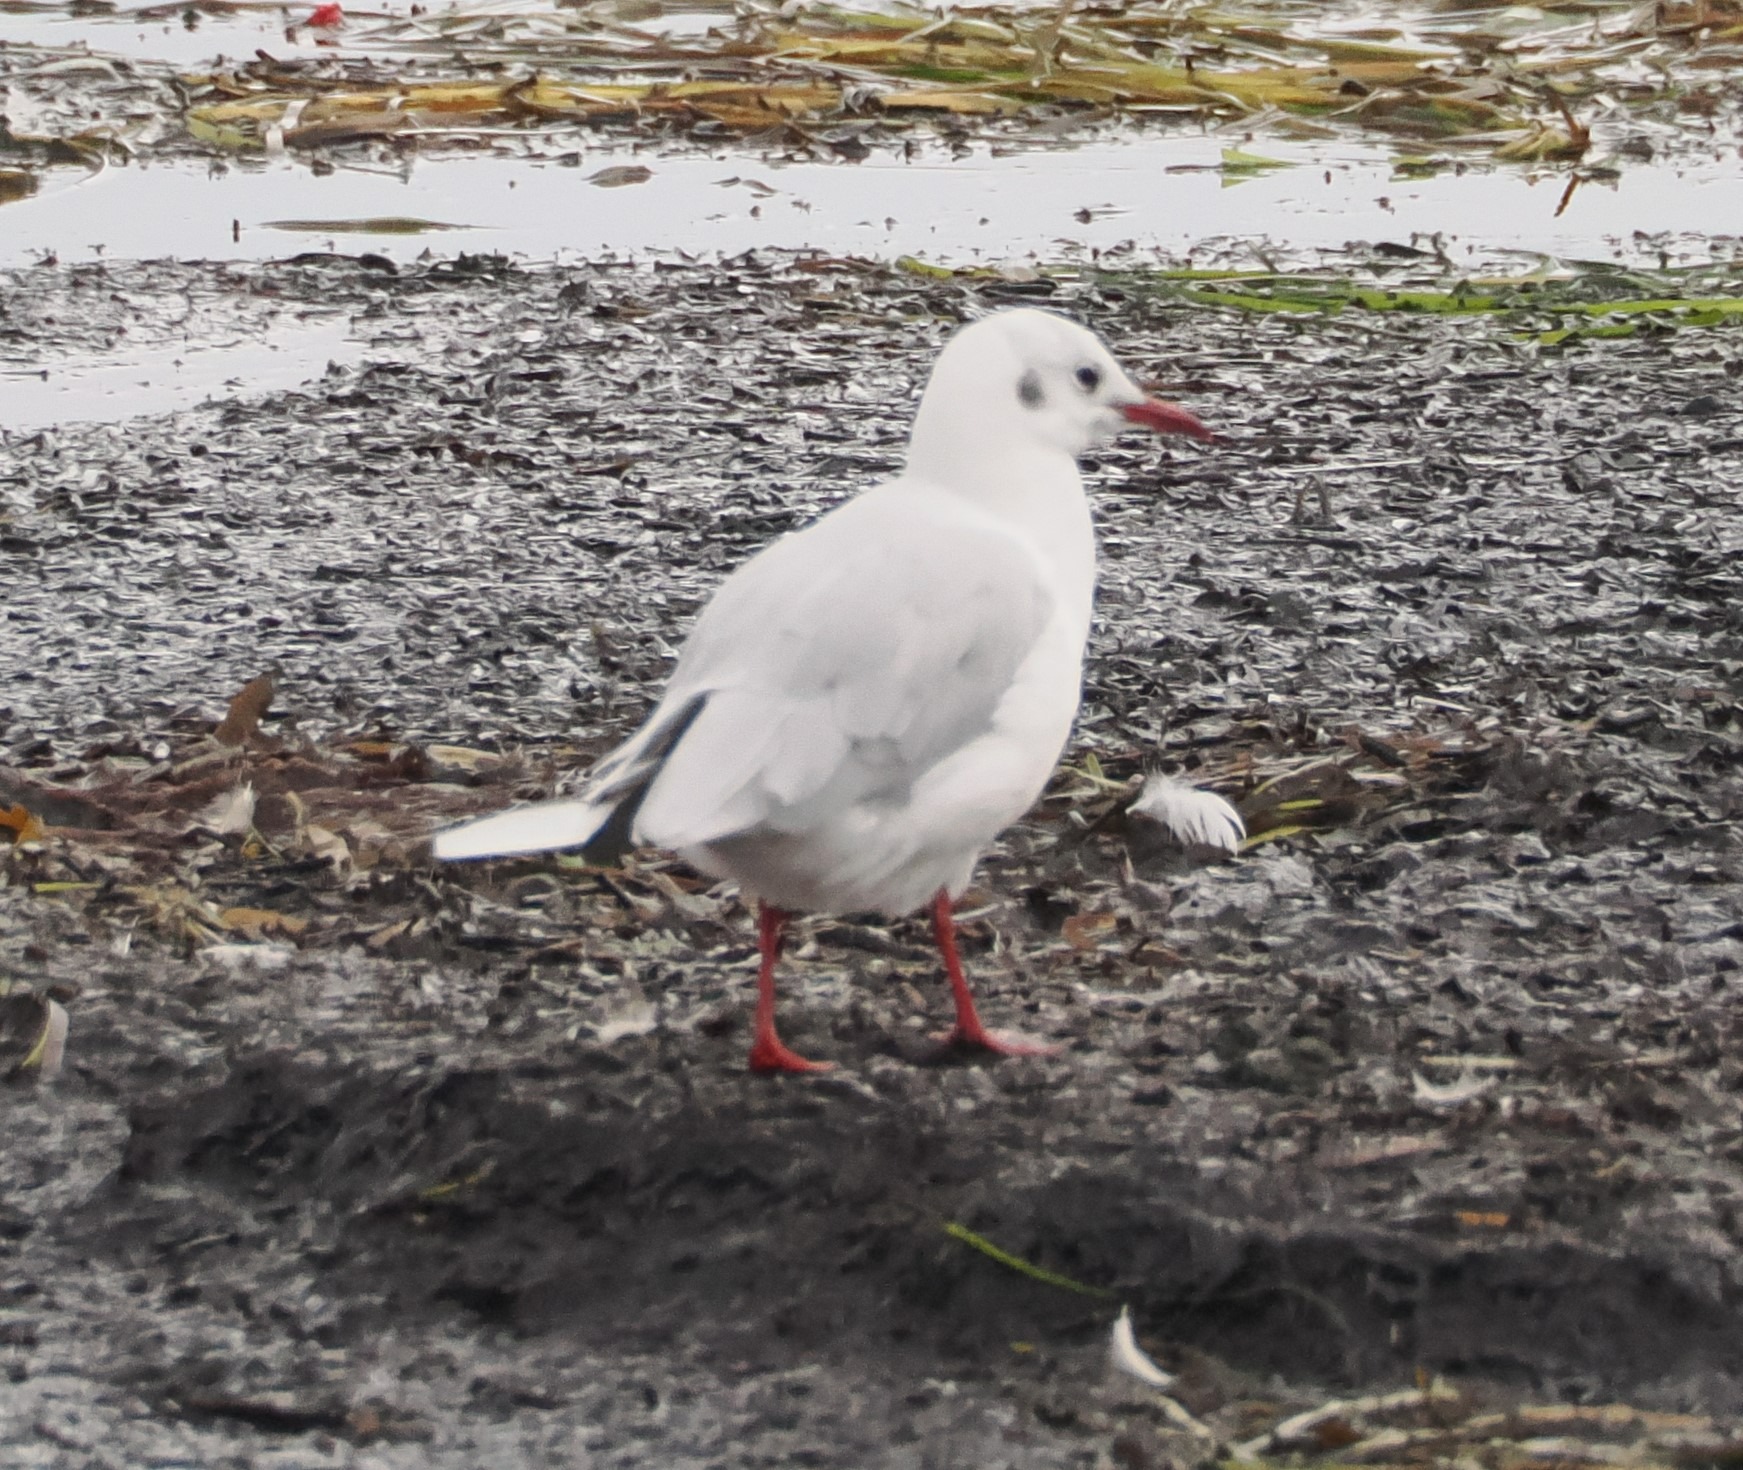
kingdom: Animalia
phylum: Chordata
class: Aves
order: Charadriiformes
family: Laridae
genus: Chroicocephalus
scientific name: Chroicocephalus ridibundus
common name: Hættemåge
